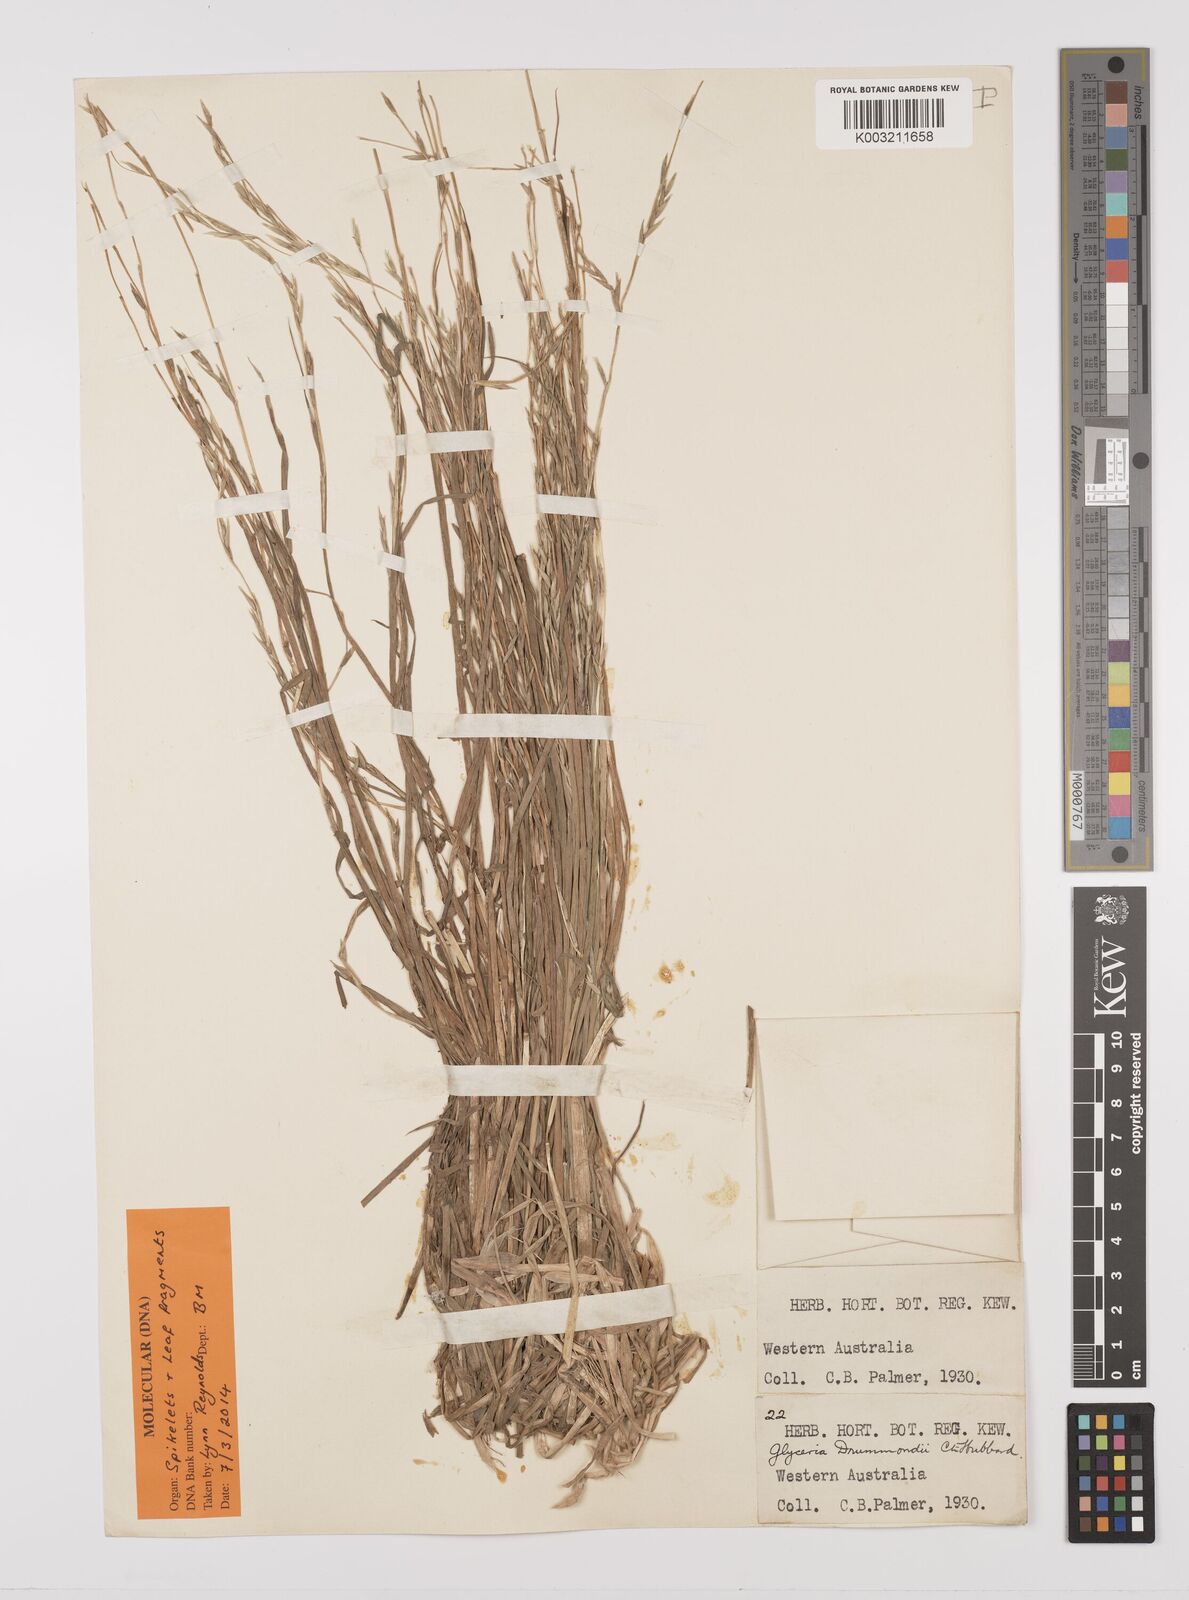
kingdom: Plantae
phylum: Tracheophyta
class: Liliopsida
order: Poales
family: Poaceae
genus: Glyceria
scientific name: Glyceria drummondii
